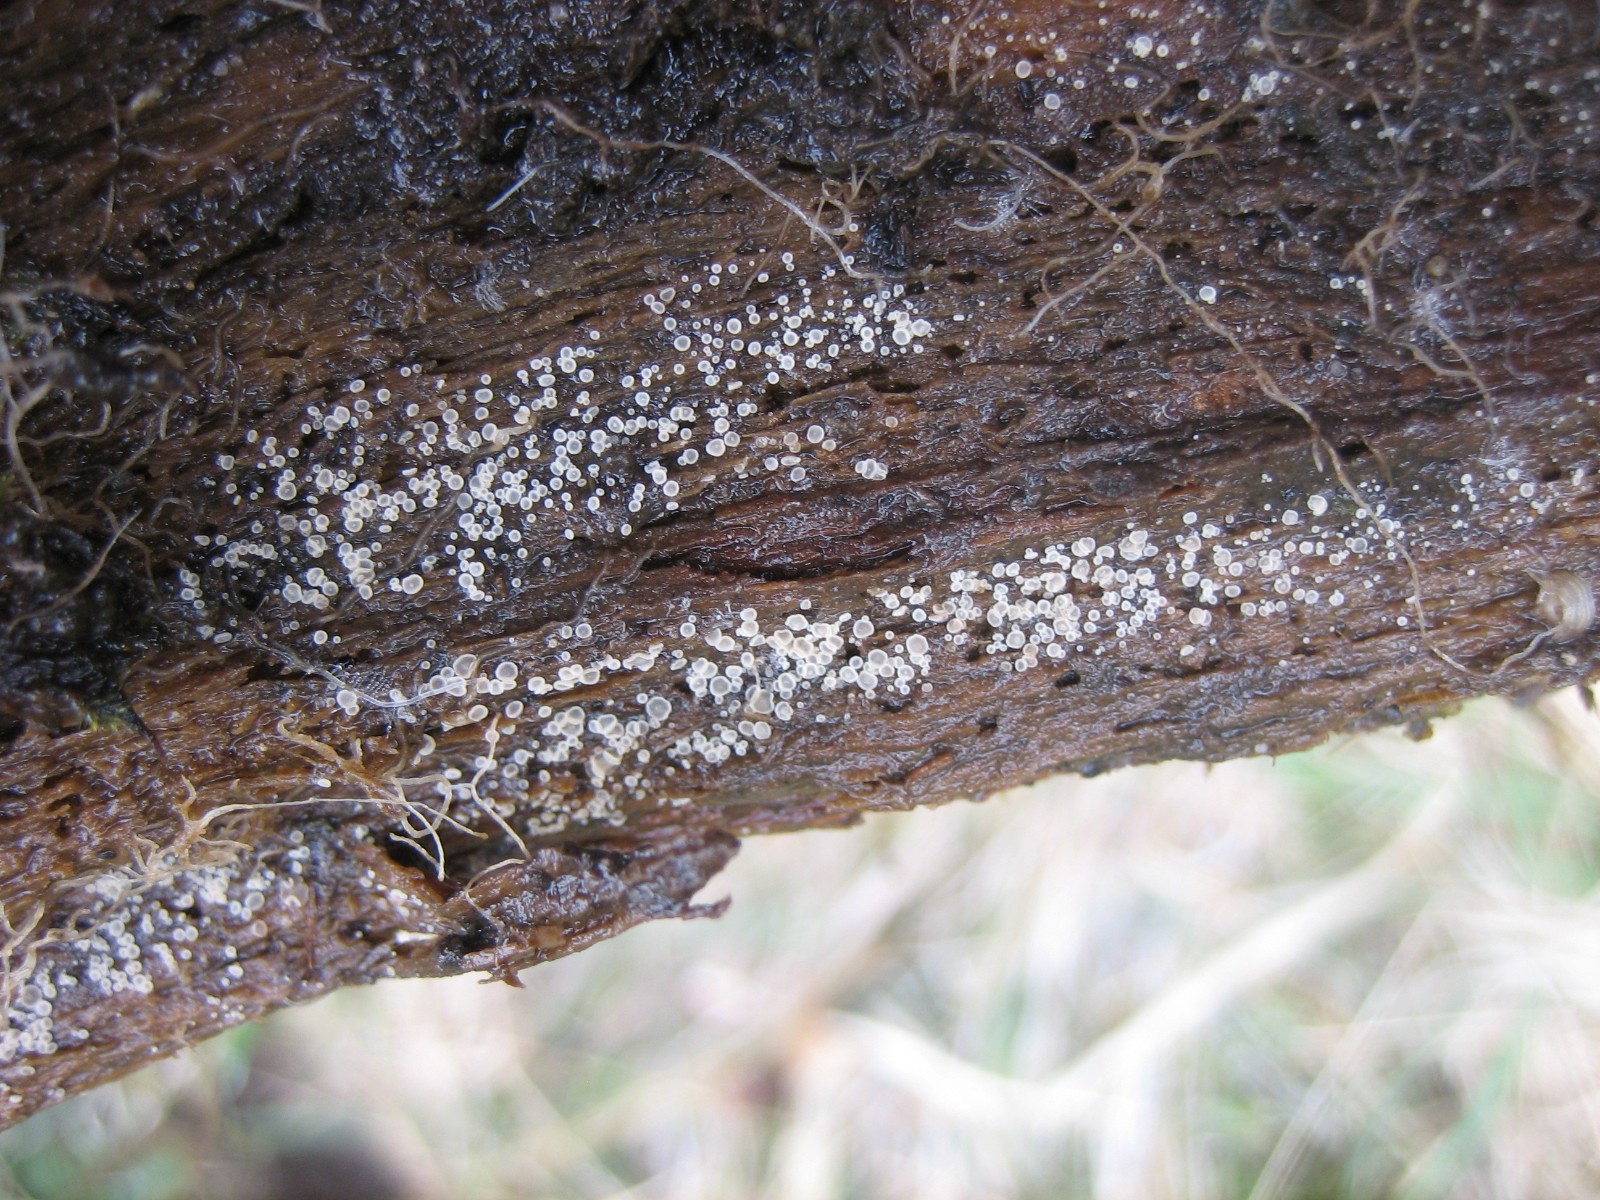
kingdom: Fungi
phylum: Ascomycota
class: Leotiomycetes
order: Helotiales
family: Mollisiaceae
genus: Mollisia
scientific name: Mollisia
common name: gråskive
